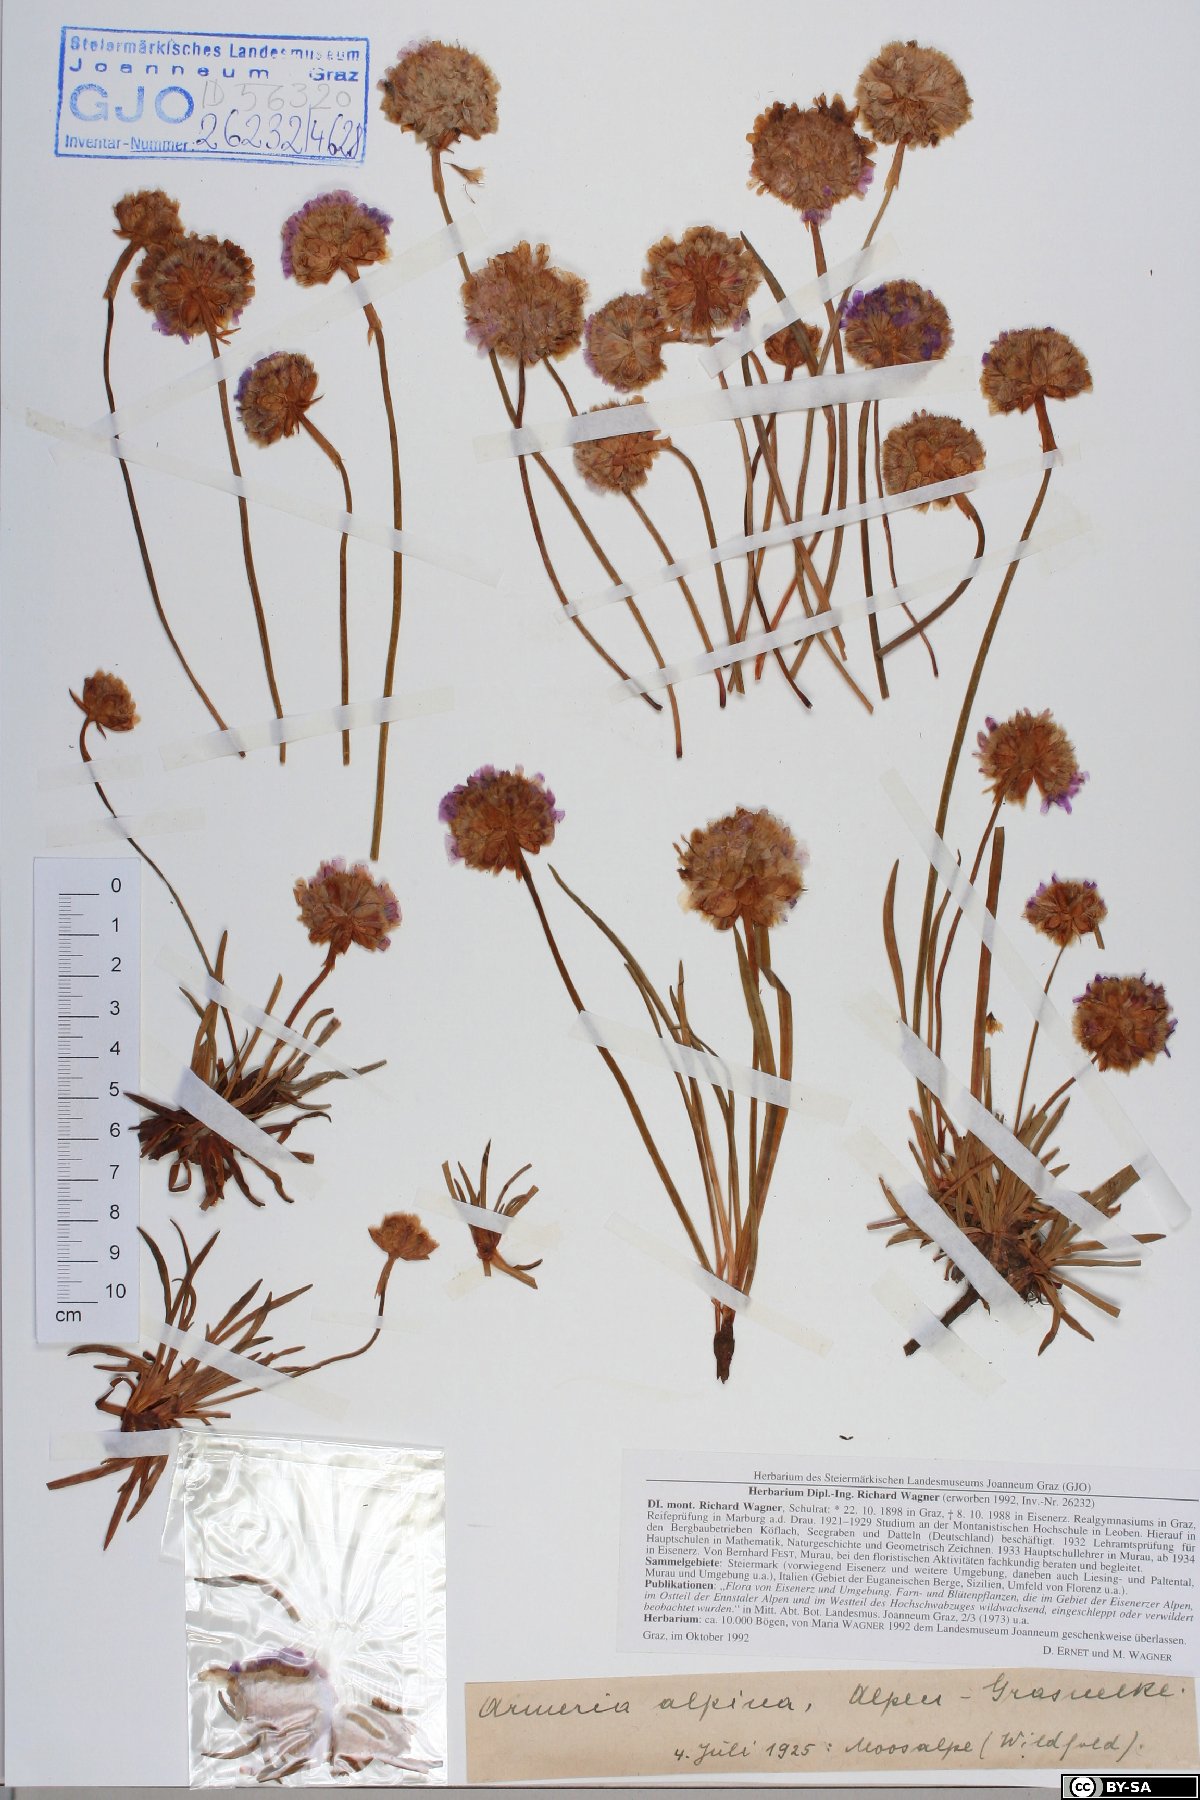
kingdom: Plantae
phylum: Tracheophyta
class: Magnoliopsida
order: Caryophyllales
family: Plumbaginaceae
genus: Armeria
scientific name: Armeria alpina
